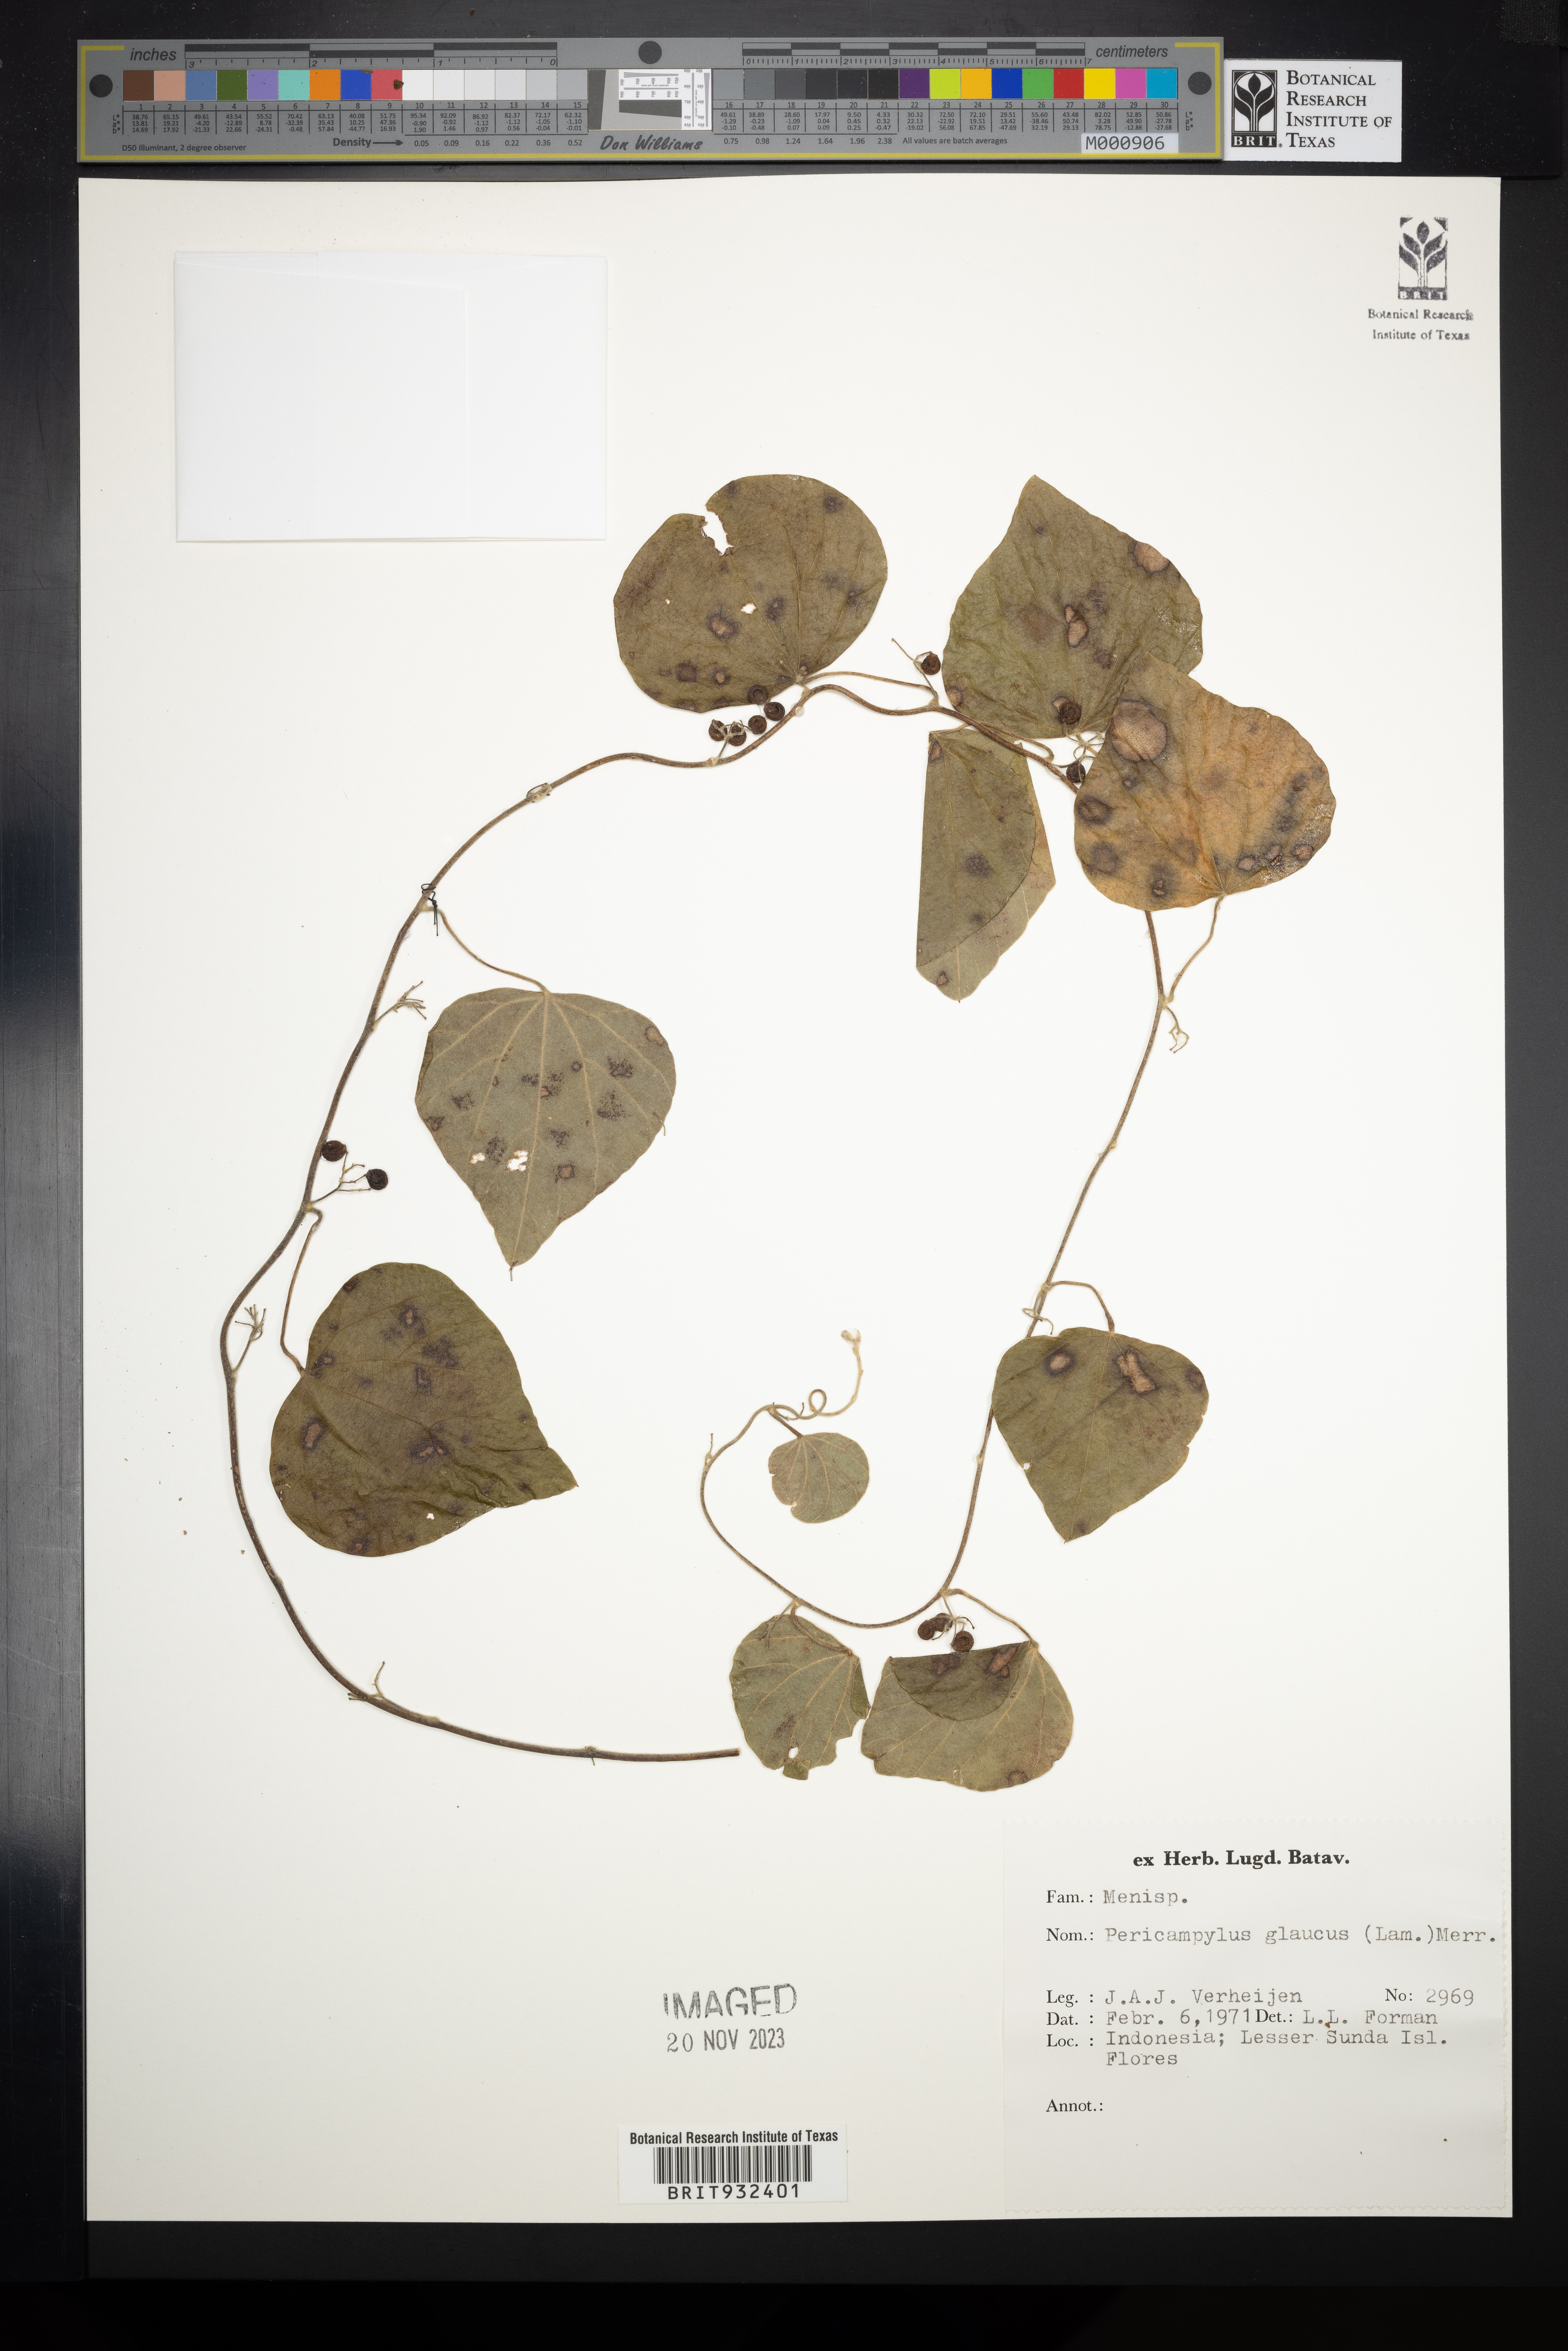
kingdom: Plantae
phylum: Tracheophyta
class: Magnoliopsida
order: Ranunculales
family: Menispermaceae
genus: Pericampylus
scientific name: Pericampylus
